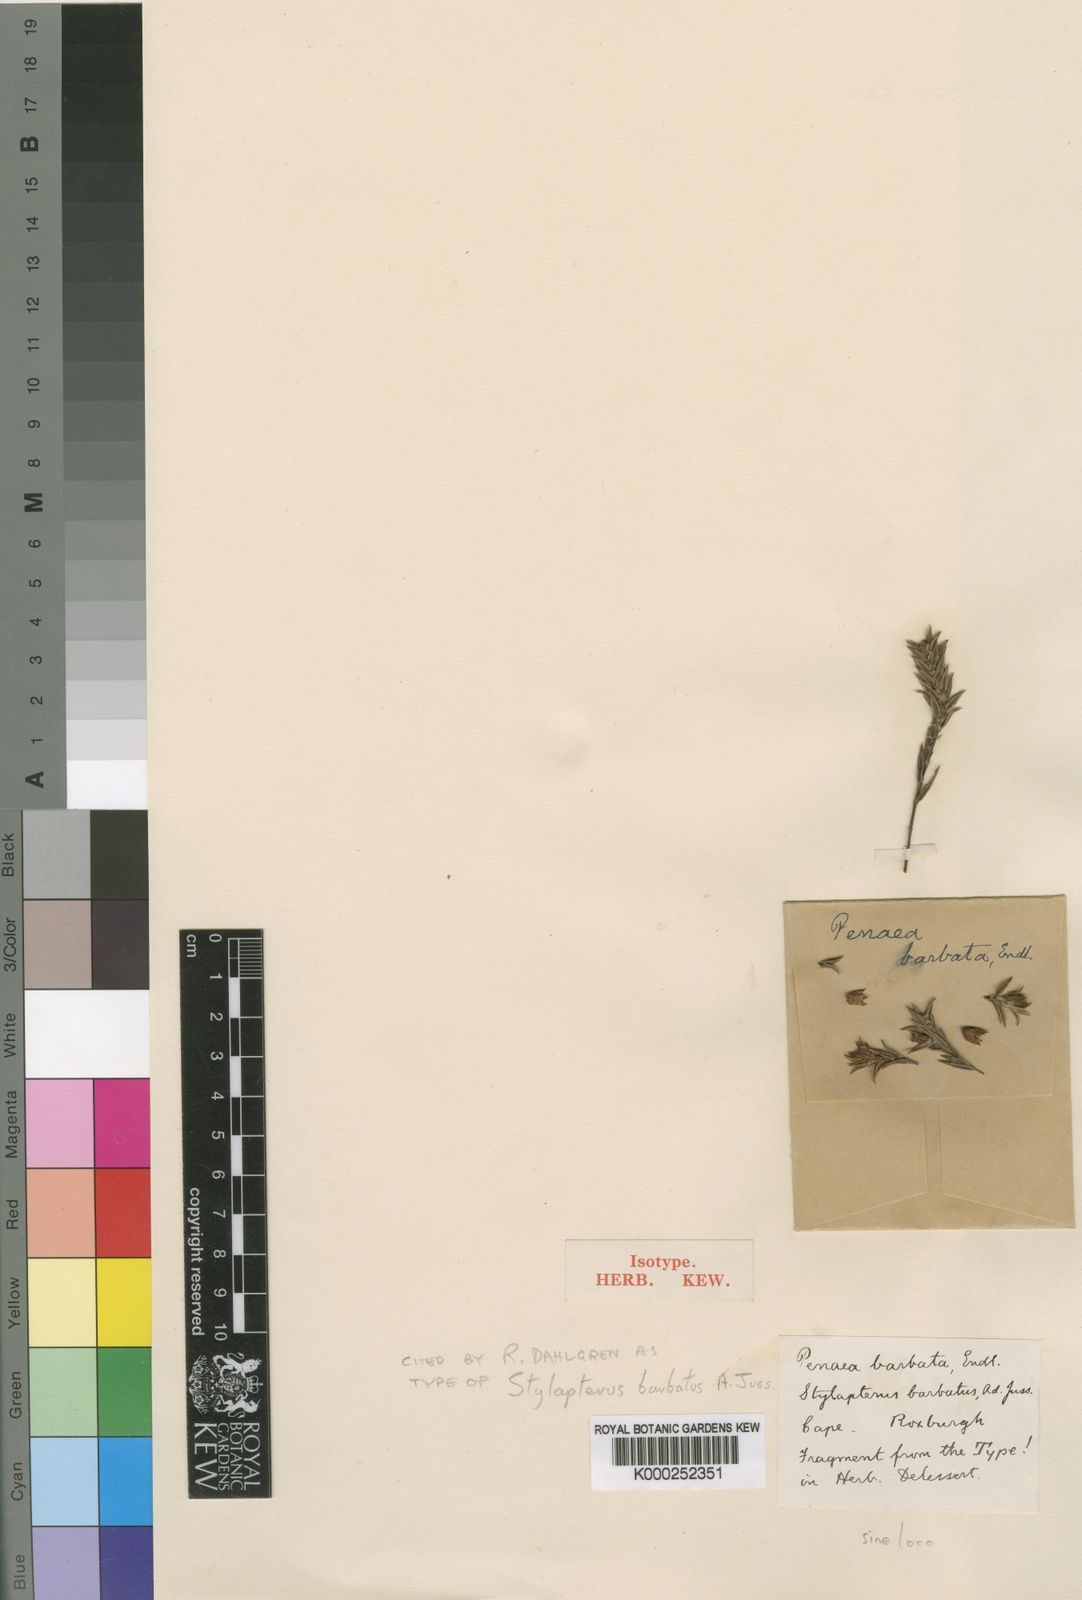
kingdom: Plantae
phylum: Tracheophyta
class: Magnoliopsida
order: Myrtales
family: Penaeaceae
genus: Stylapterus
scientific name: Stylapterus barbatus
